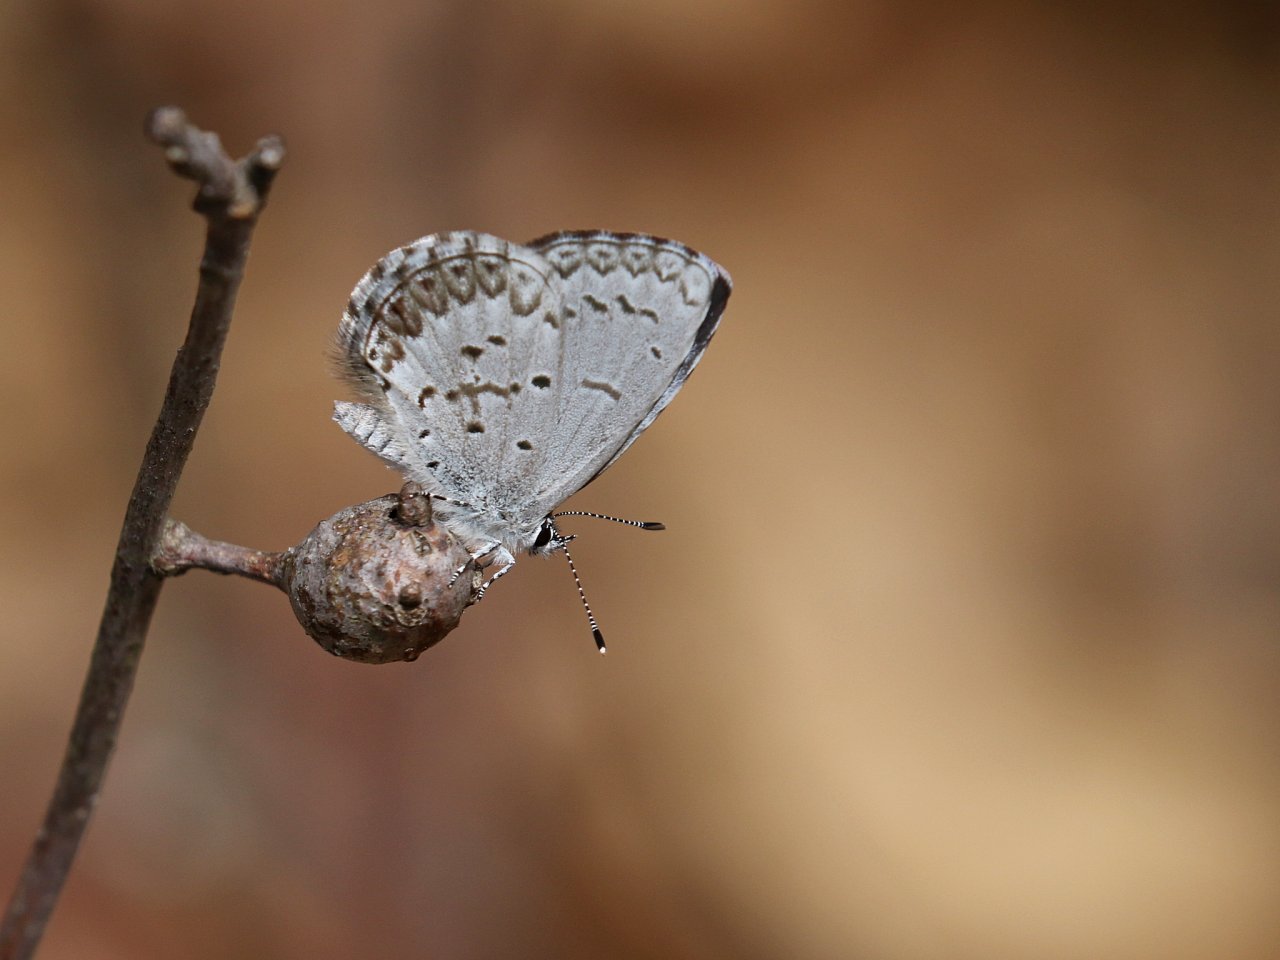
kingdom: Animalia
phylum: Arthropoda
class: Insecta
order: Lepidoptera
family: Lycaenidae
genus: Celastrina
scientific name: Celastrina ladon
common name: Spring Azure
